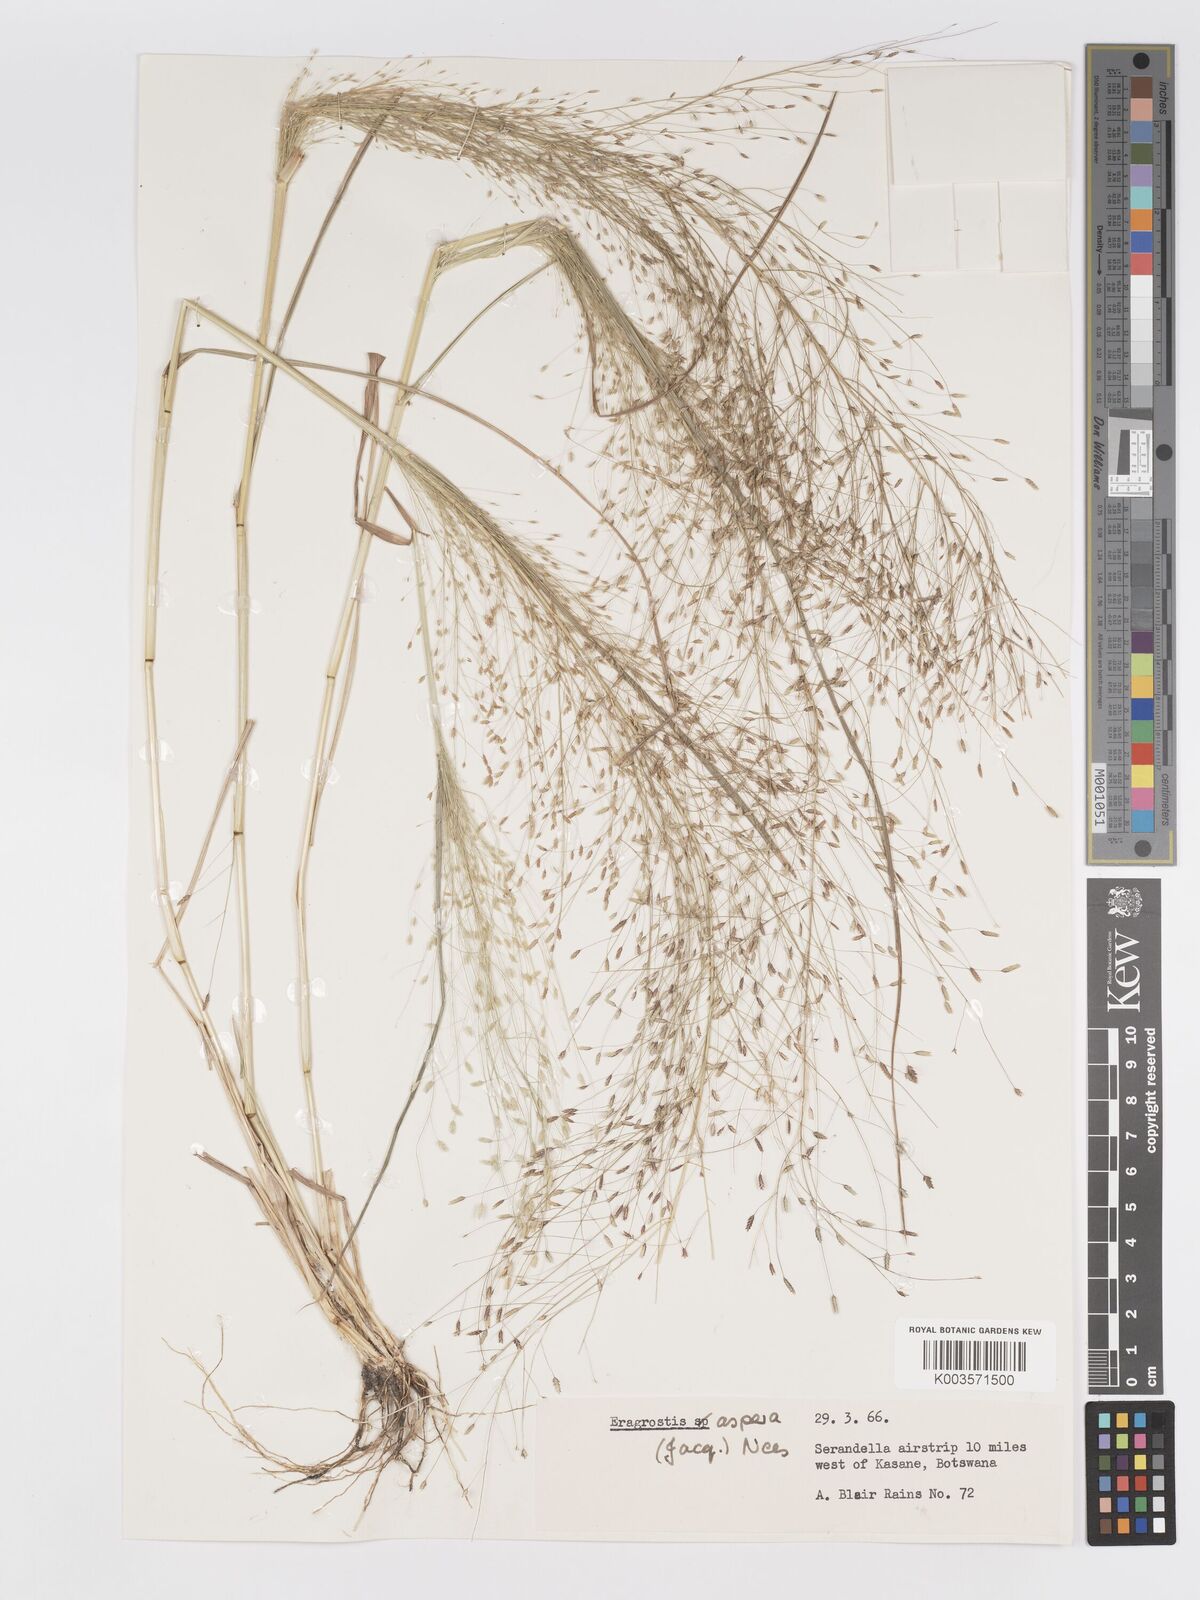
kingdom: Plantae
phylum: Tracheophyta
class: Liliopsida
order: Poales
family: Poaceae
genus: Eragrostis
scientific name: Eragrostis aspera
